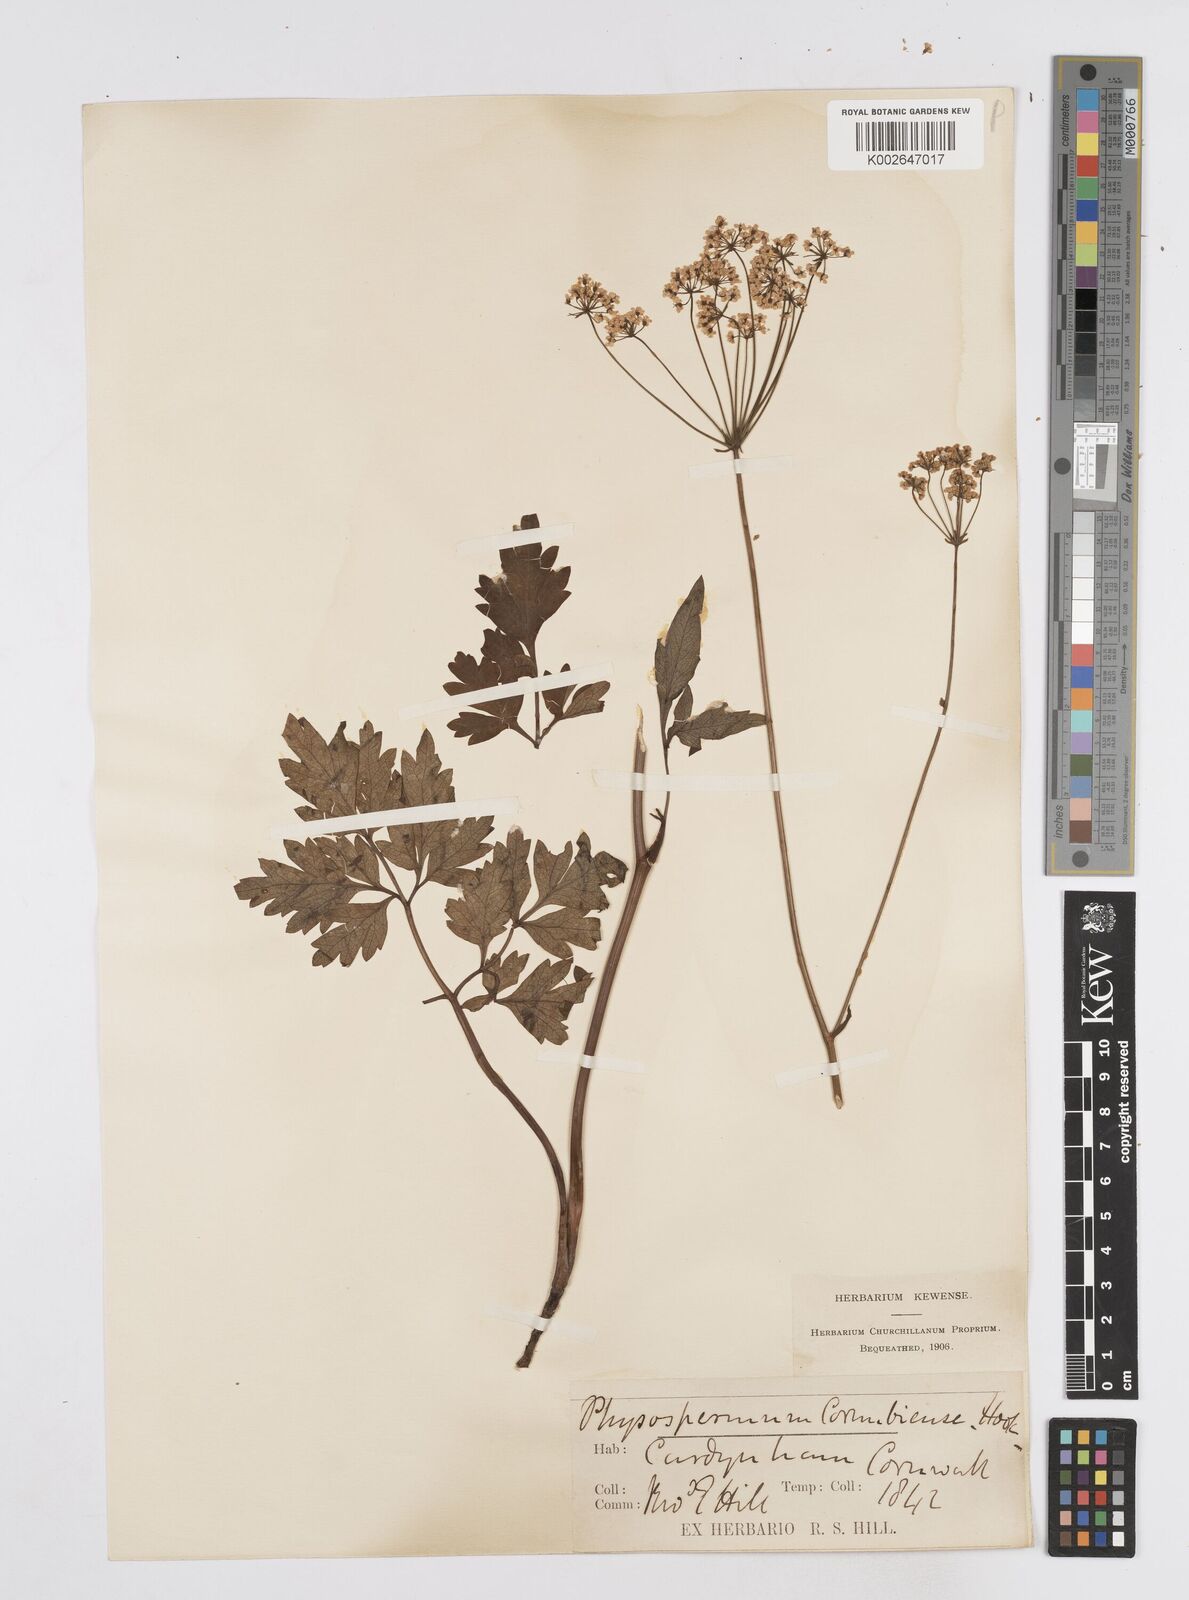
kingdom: Plantae
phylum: Tracheophyta
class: Magnoliopsida
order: Apiales
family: Apiaceae
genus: Physospermum
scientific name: Physospermum cornubiense
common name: Bladderseed
